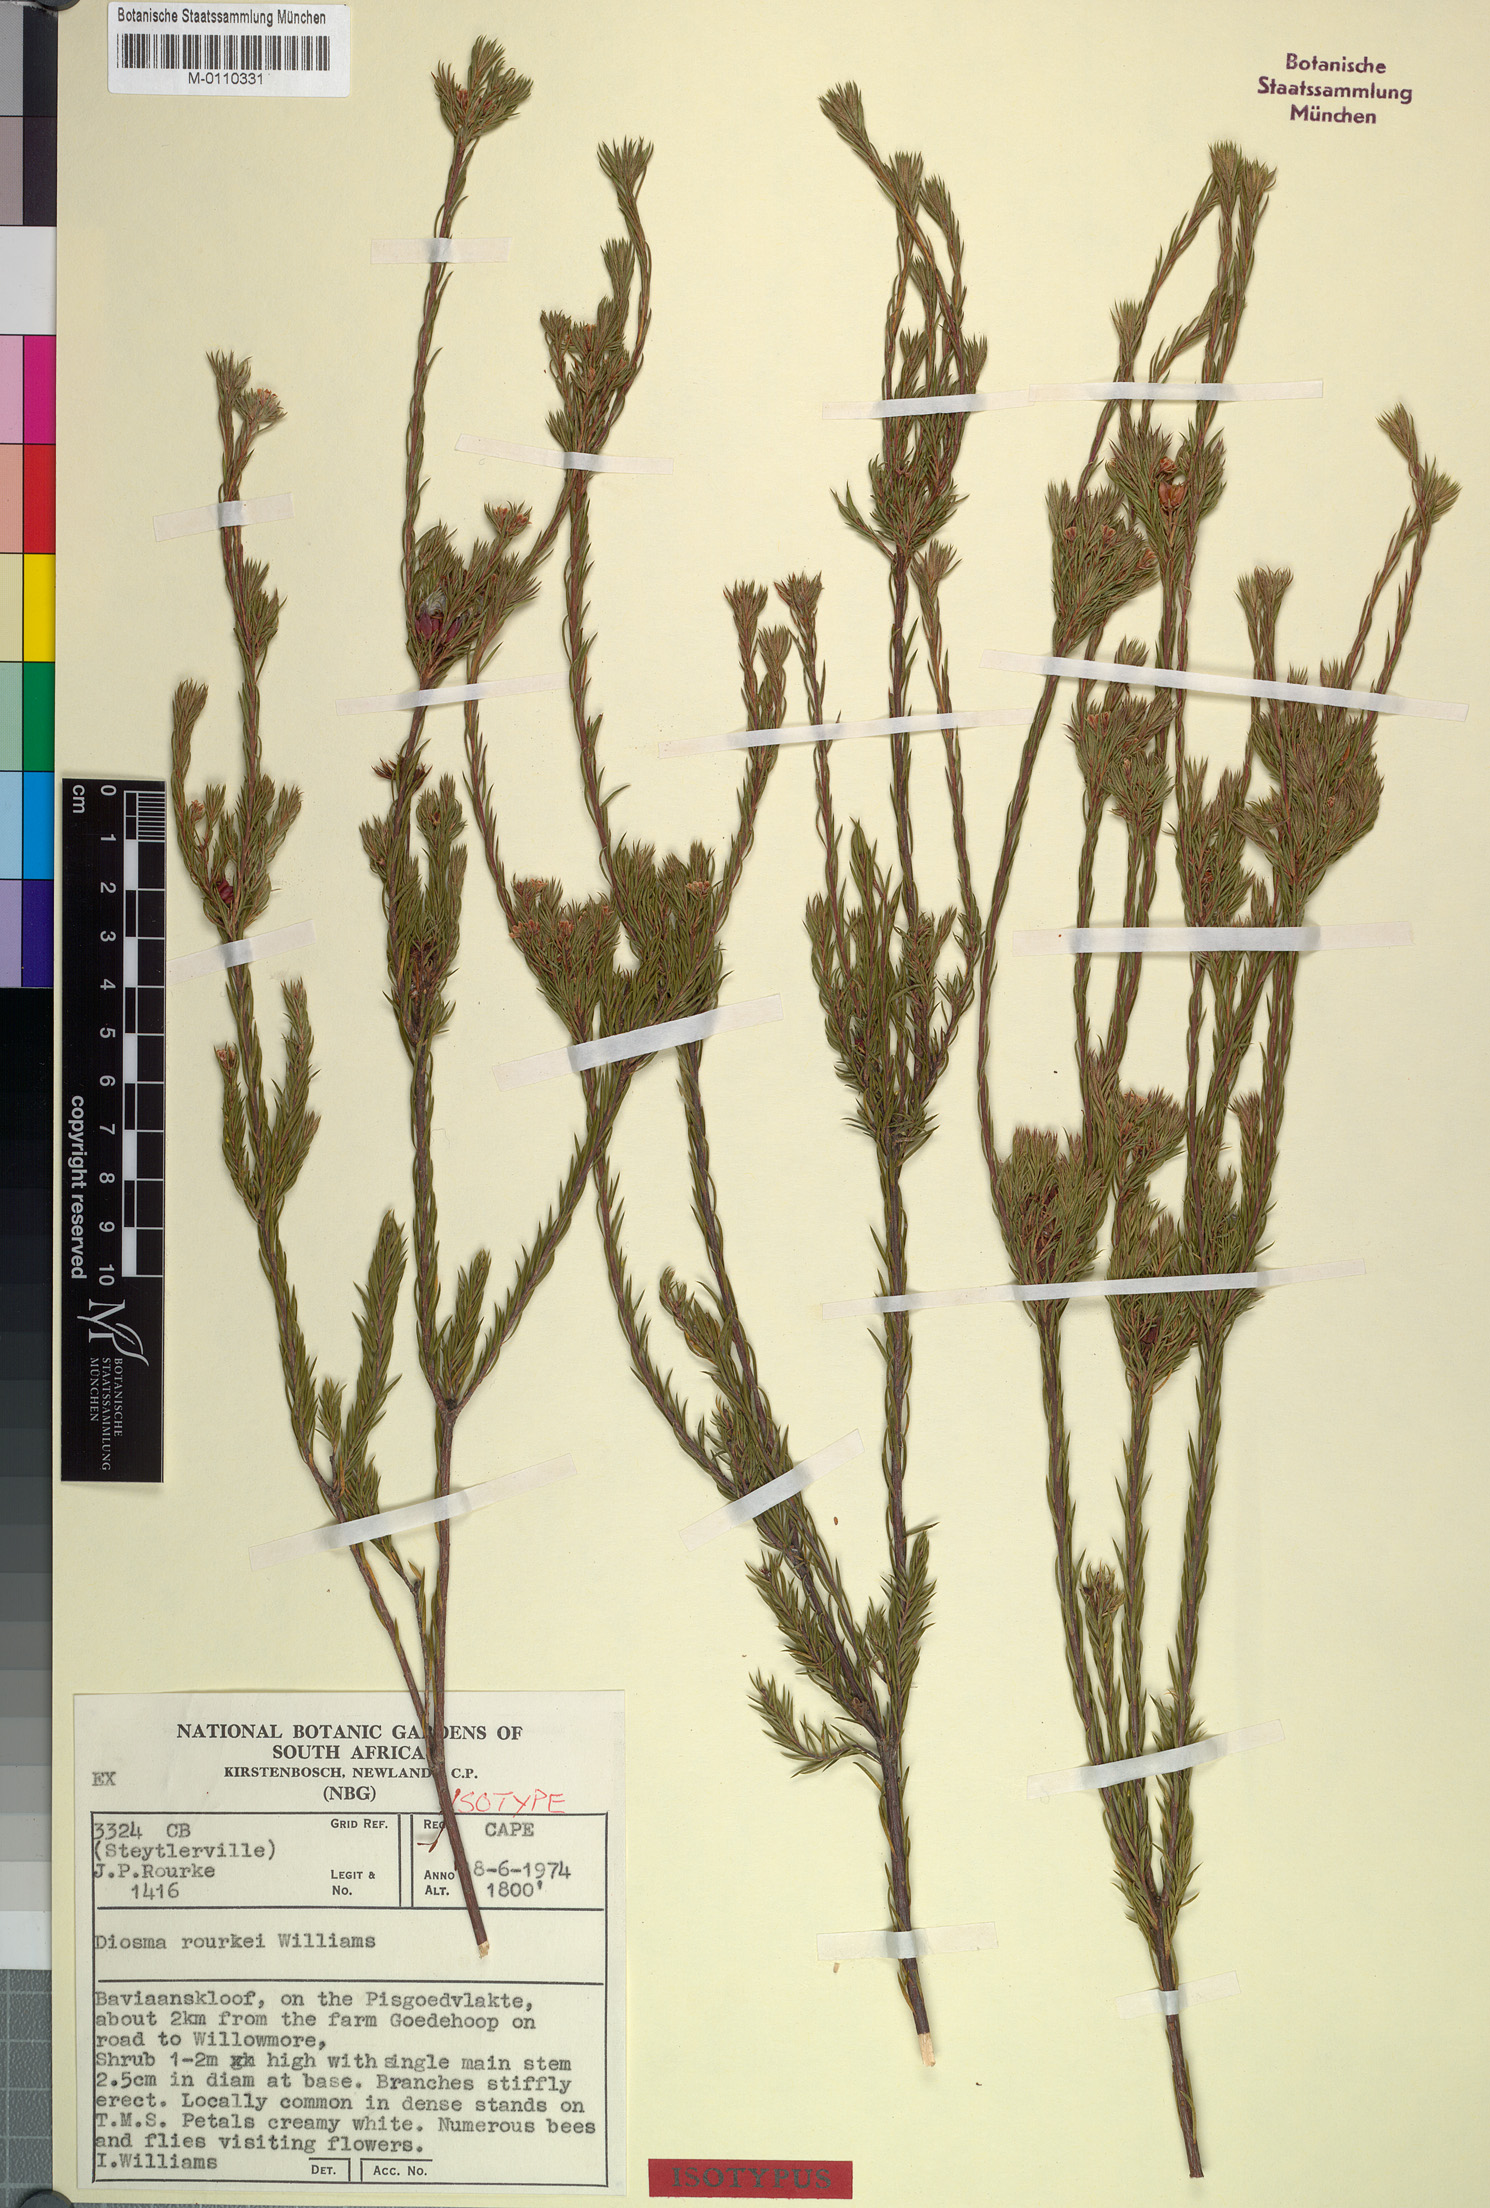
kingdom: Plantae
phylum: Tracheophyta
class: Magnoliopsida
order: Sapindales
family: Rutaceae
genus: Diosma
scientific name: Diosma rourkei
